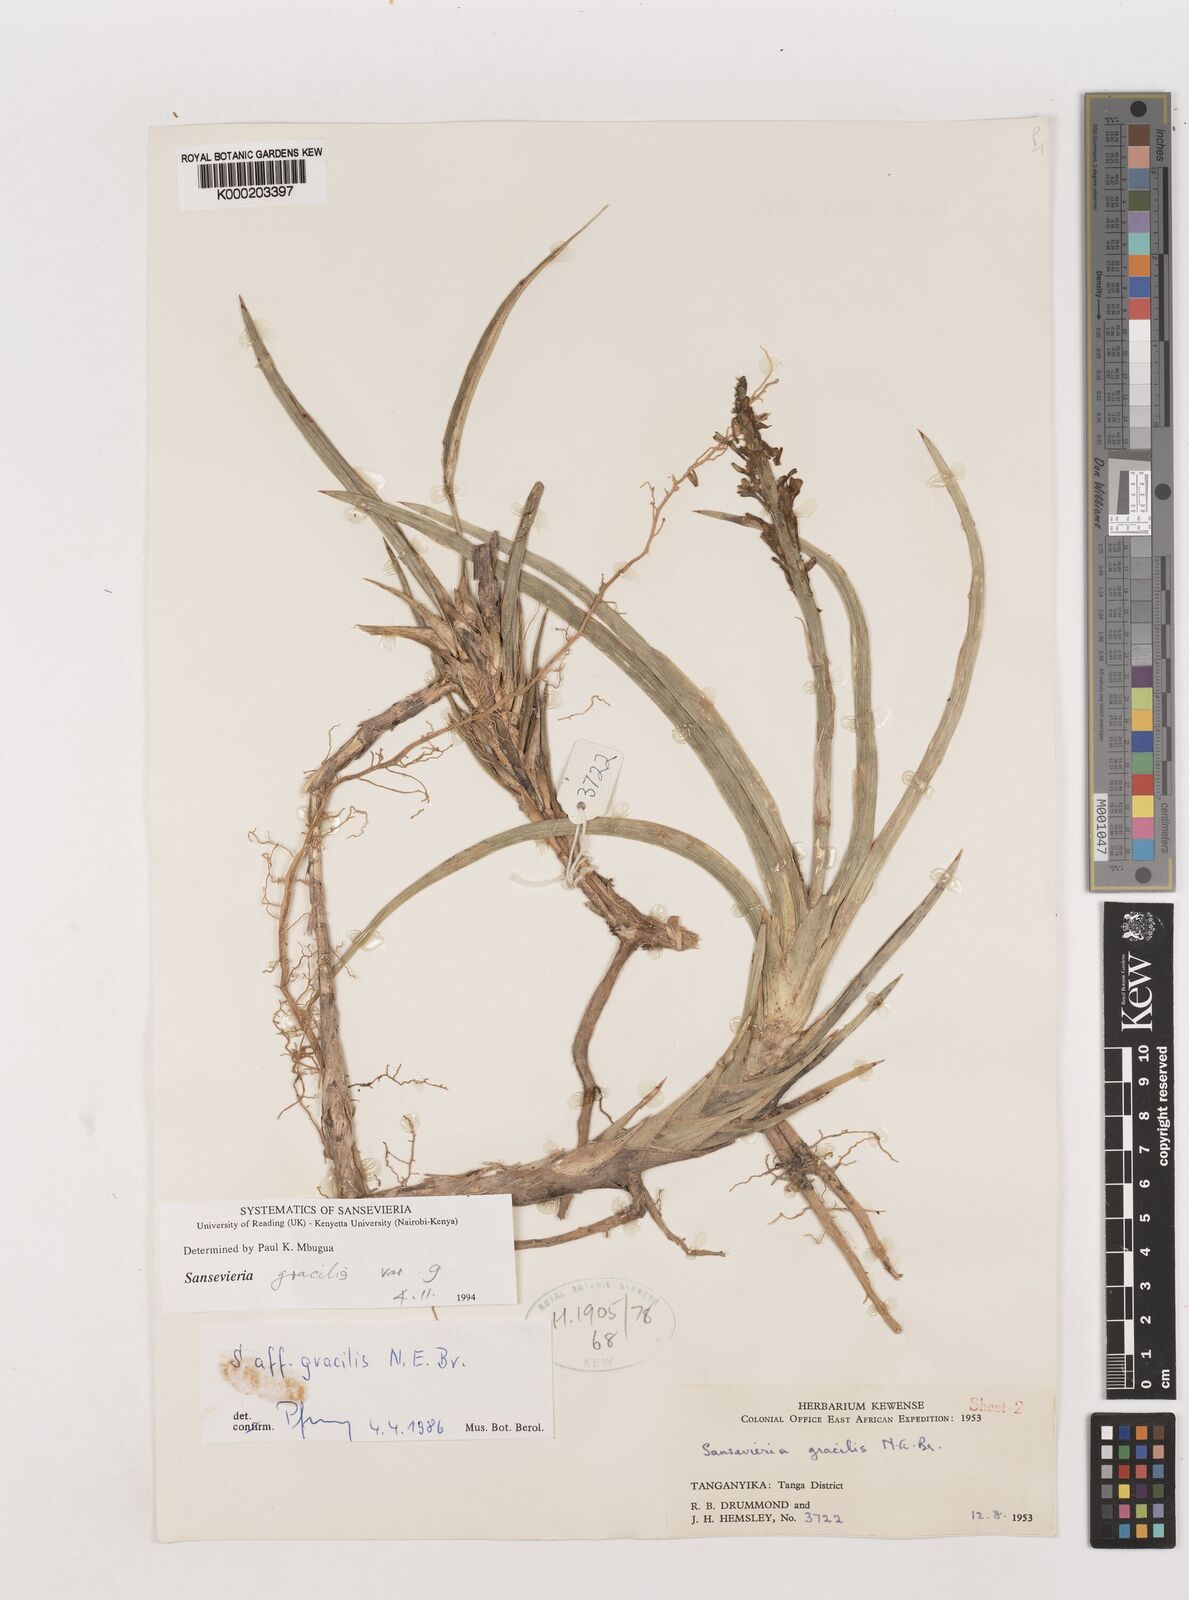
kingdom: Plantae
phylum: Tracheophyta
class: Liliopsida
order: Asparagales
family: Asparagaceae
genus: Dracaena
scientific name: Dracaena serpenta
